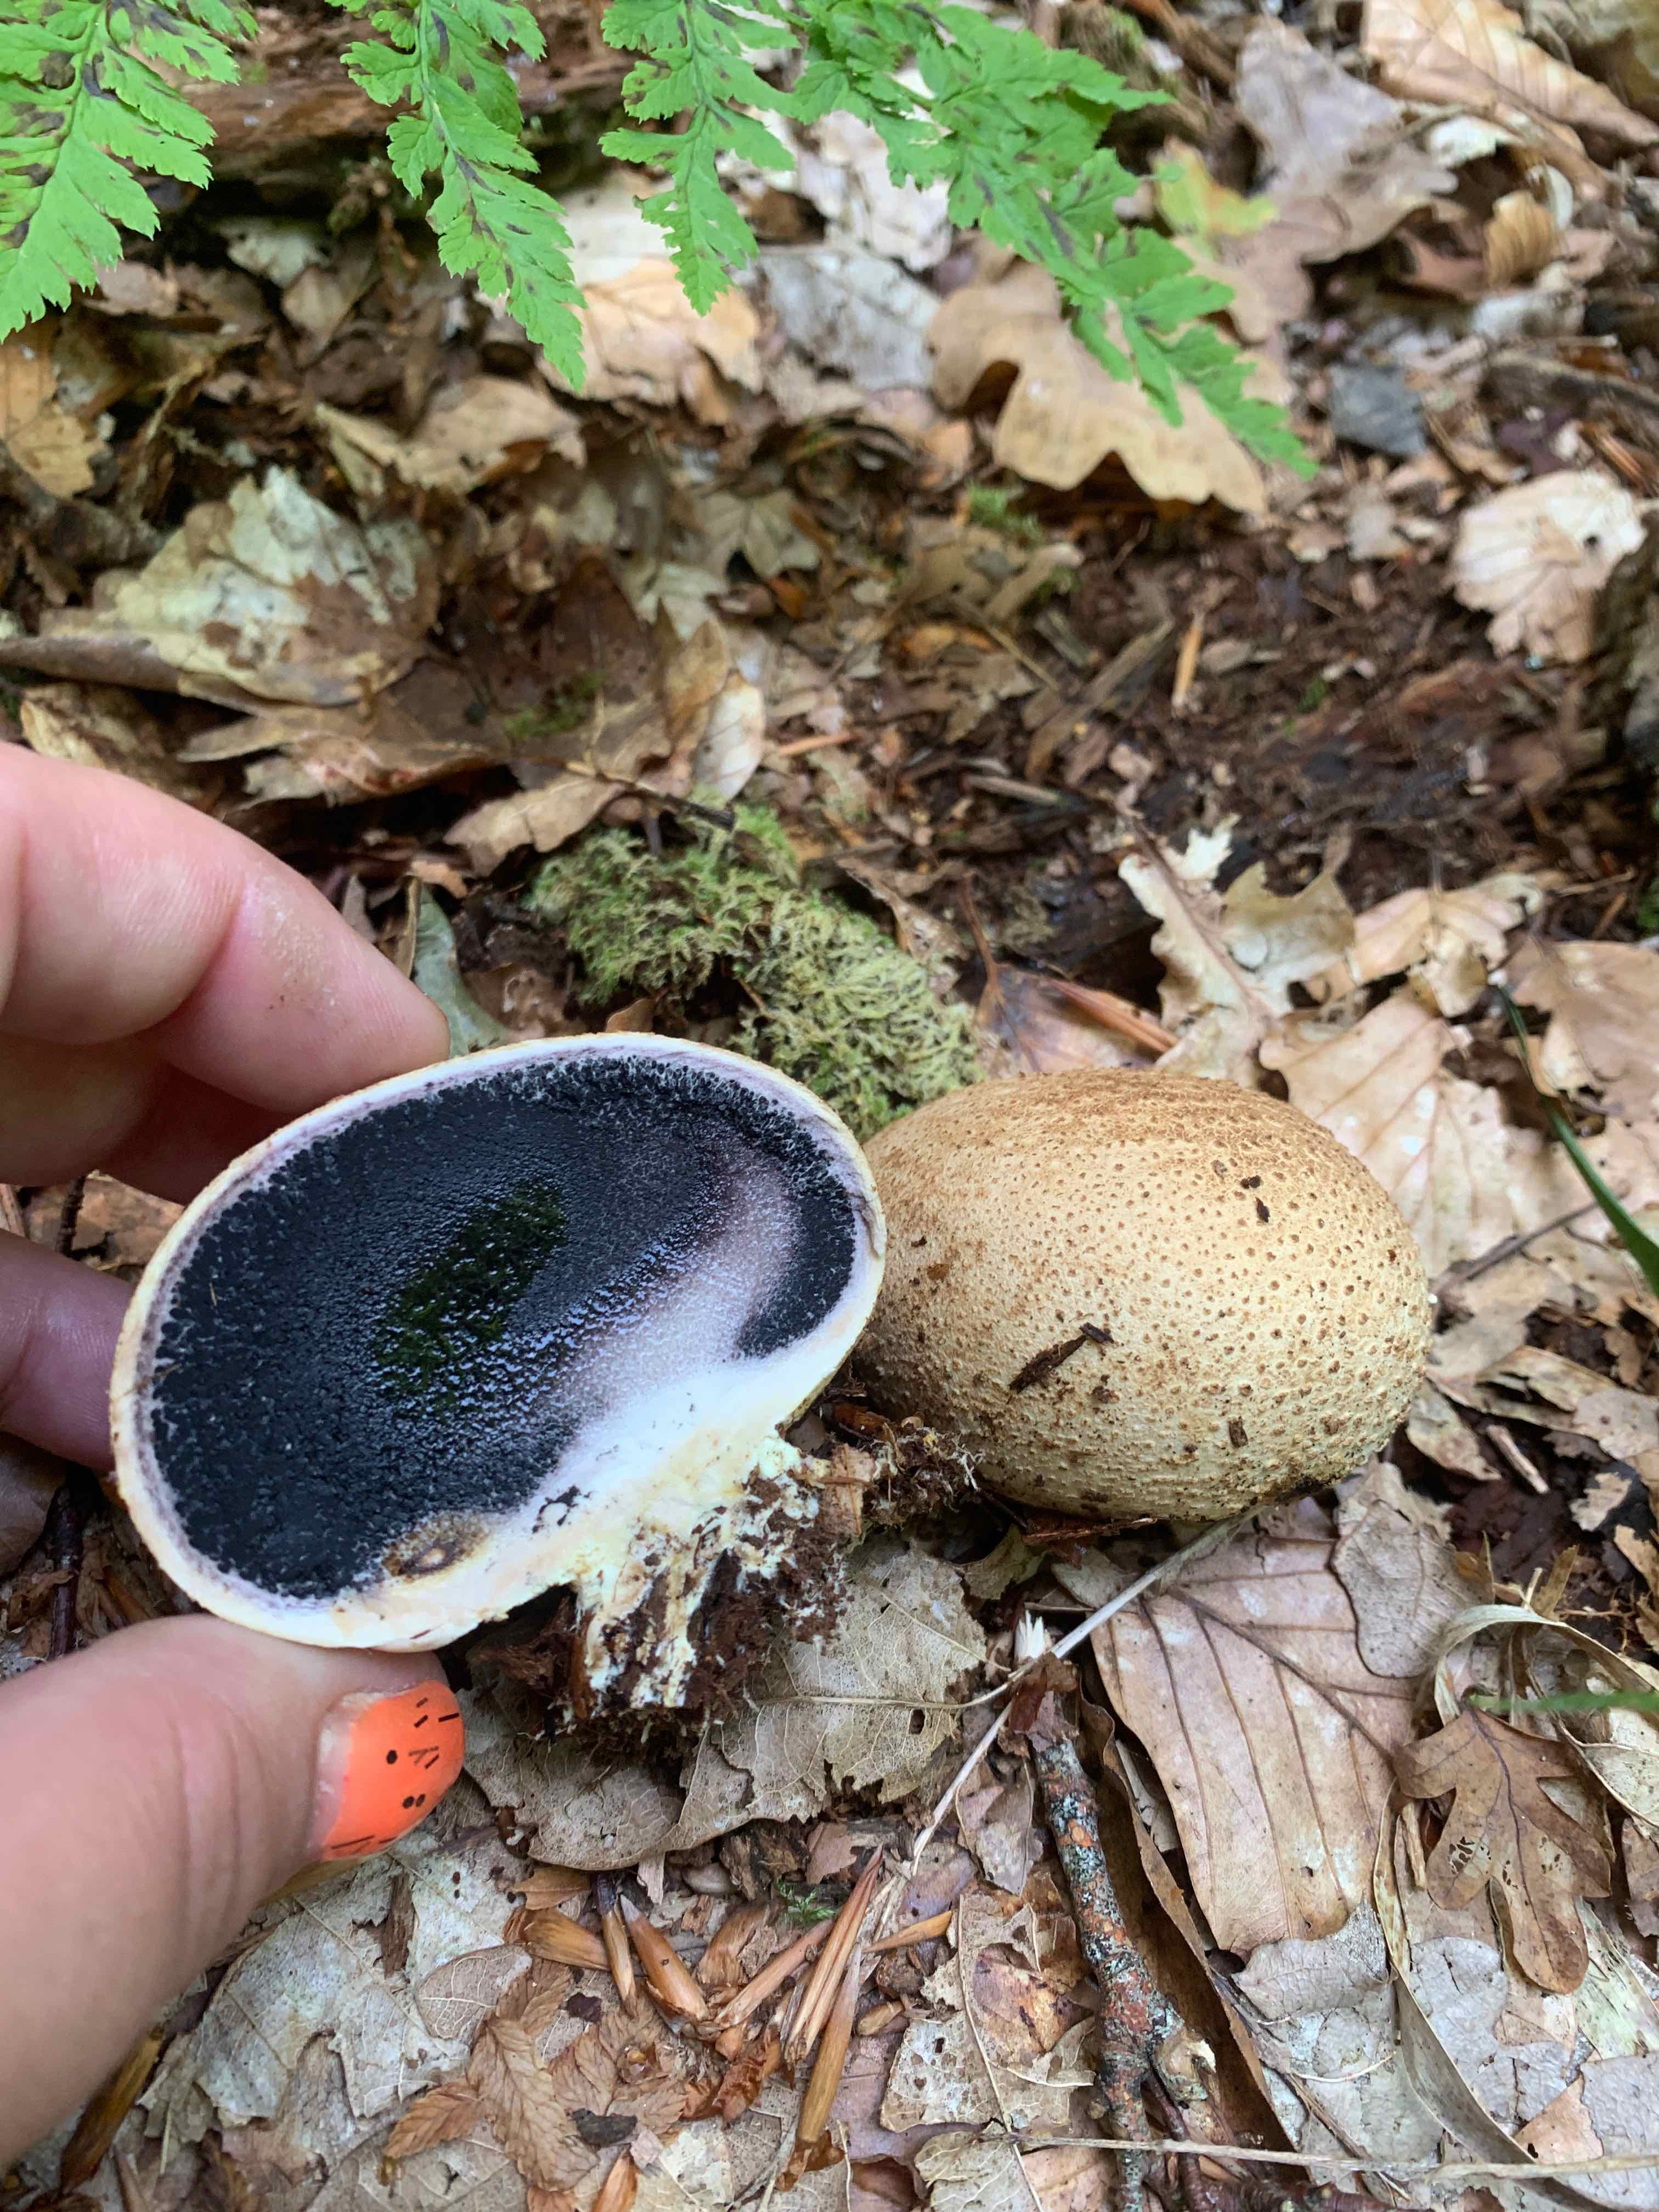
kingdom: Fungi
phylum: Basidiomycota
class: Agaricomycetes
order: Boletales
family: Sclerodermataceae
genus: Scleroderma
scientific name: Scleroderma citrinum
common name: almindelig bruskbold
